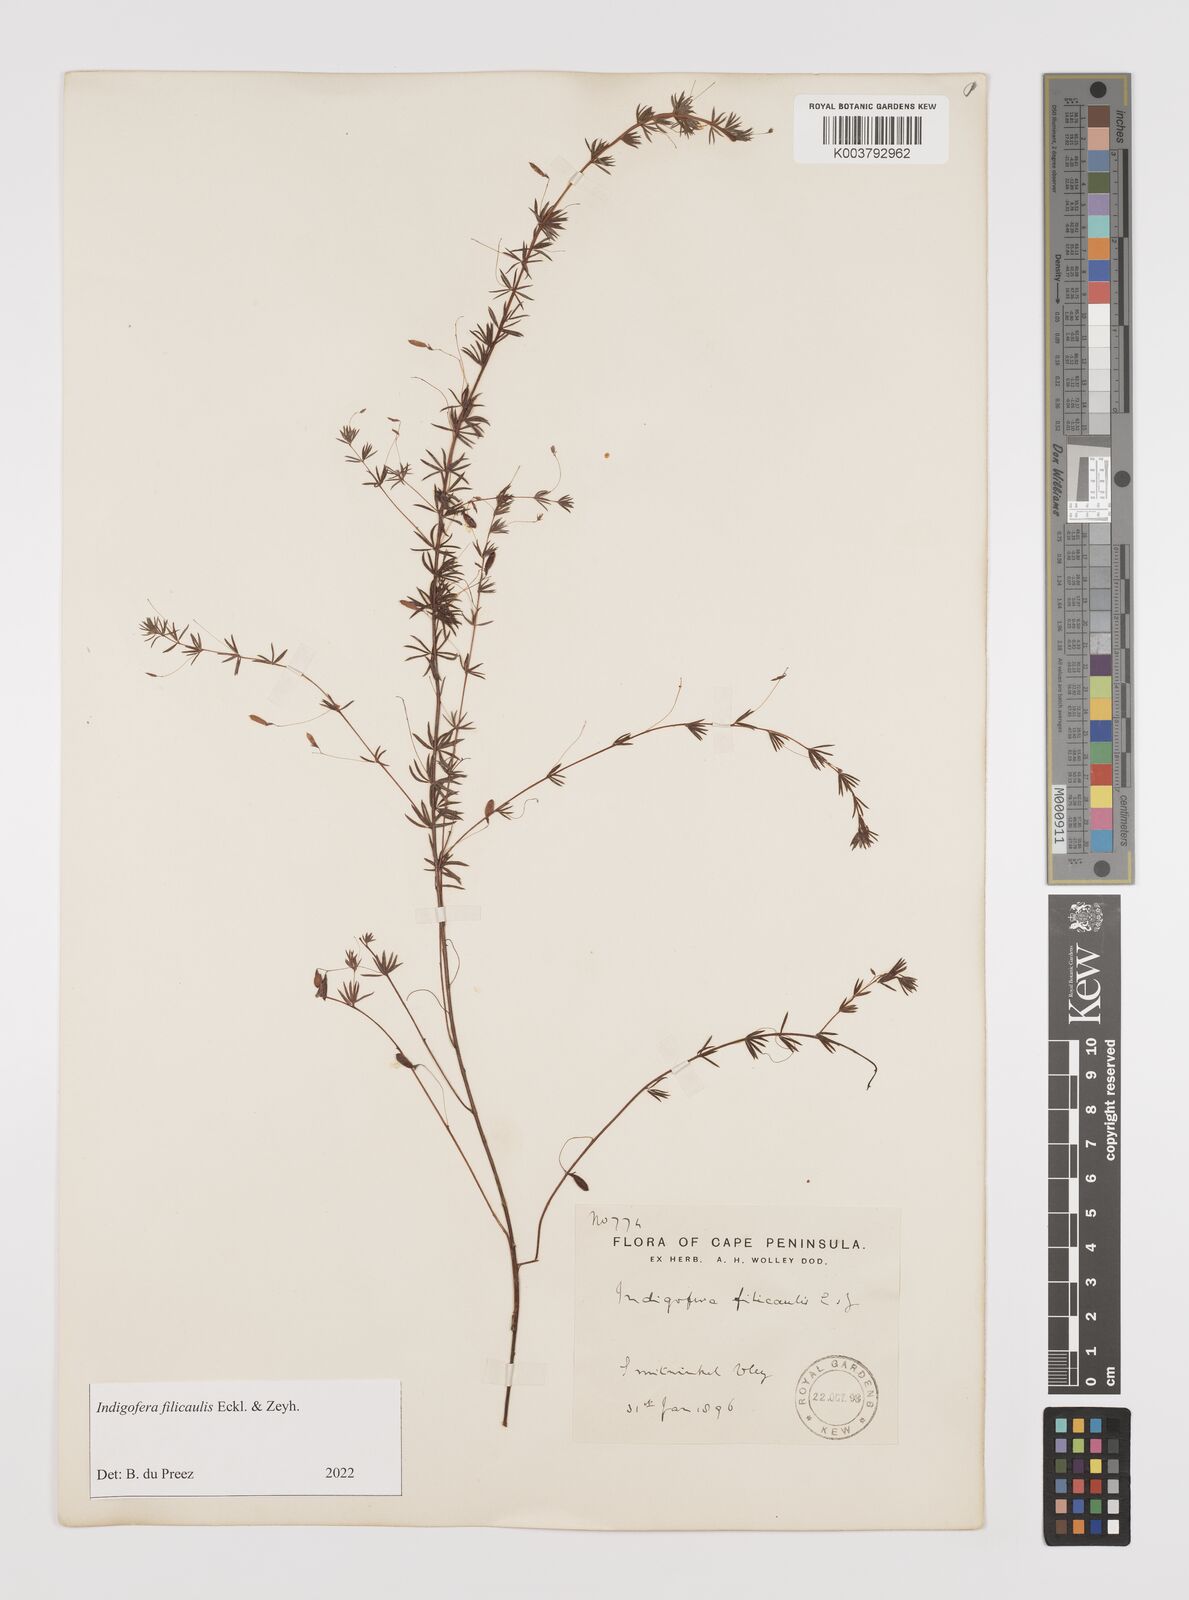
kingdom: Plantae
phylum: Tracheophyta
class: Magnoliopsida
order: Fabales
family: Fabaceae
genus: Indigofera
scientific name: Indigofera filicaulis
